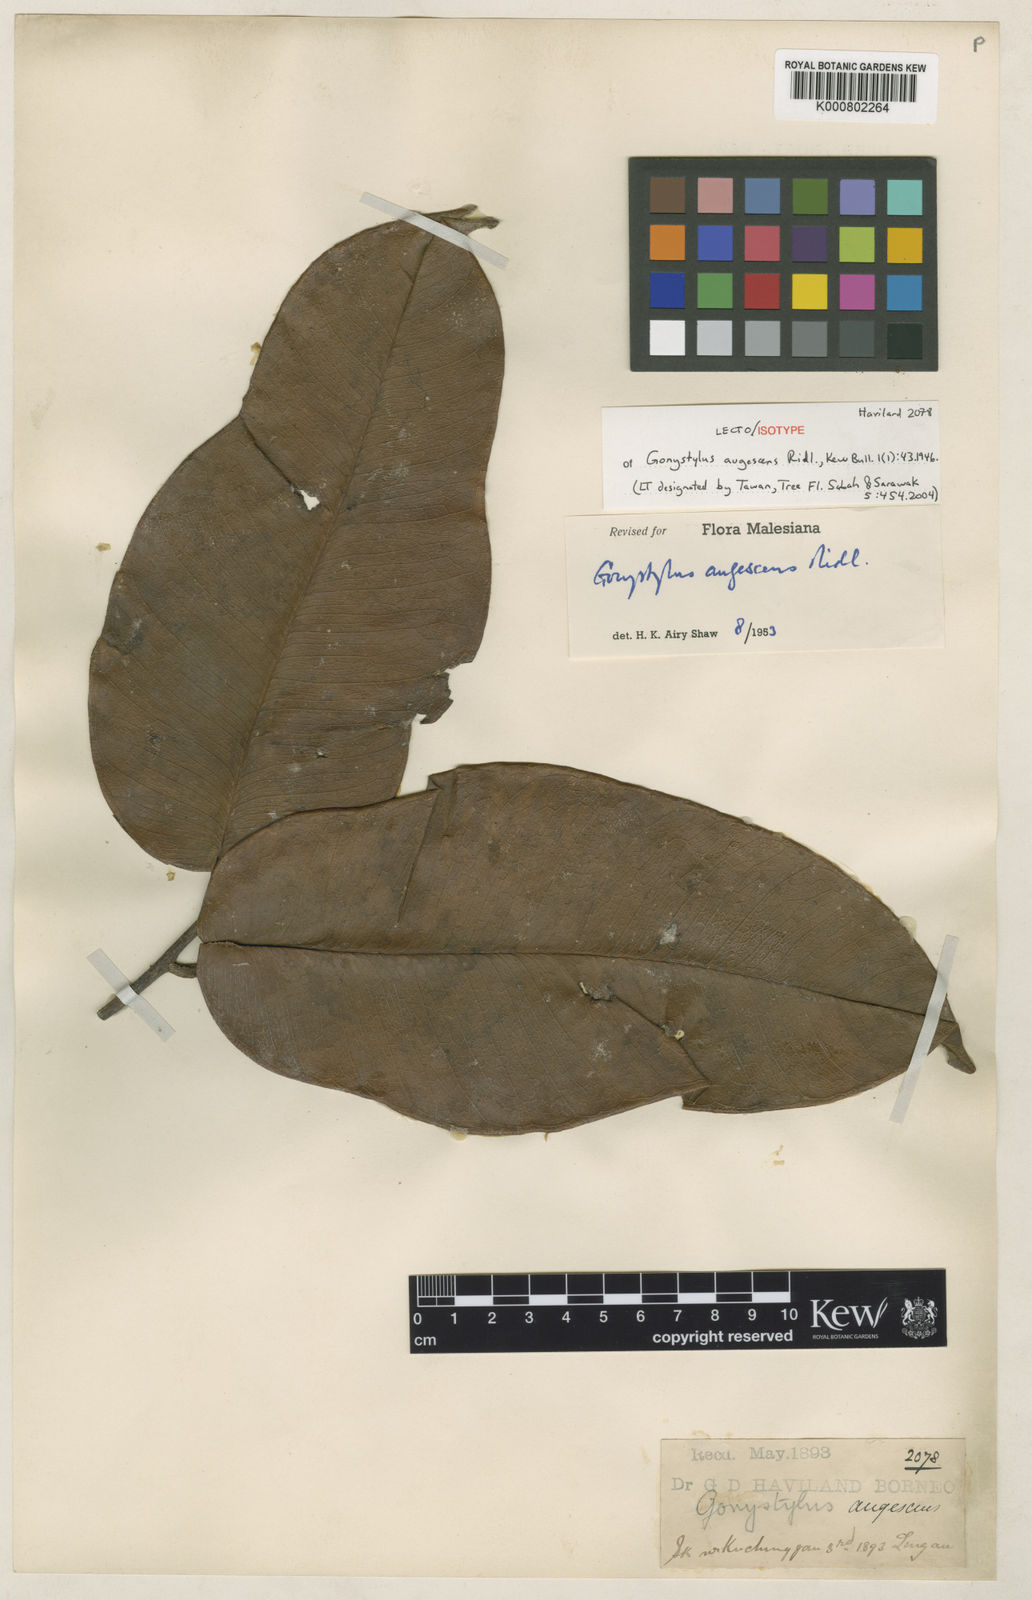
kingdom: Plantae
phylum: Tracheophyta
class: Magnoliopsida
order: Malvales
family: Thymelaeaceae
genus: Gonystylus
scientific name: Gonystylus augescens
